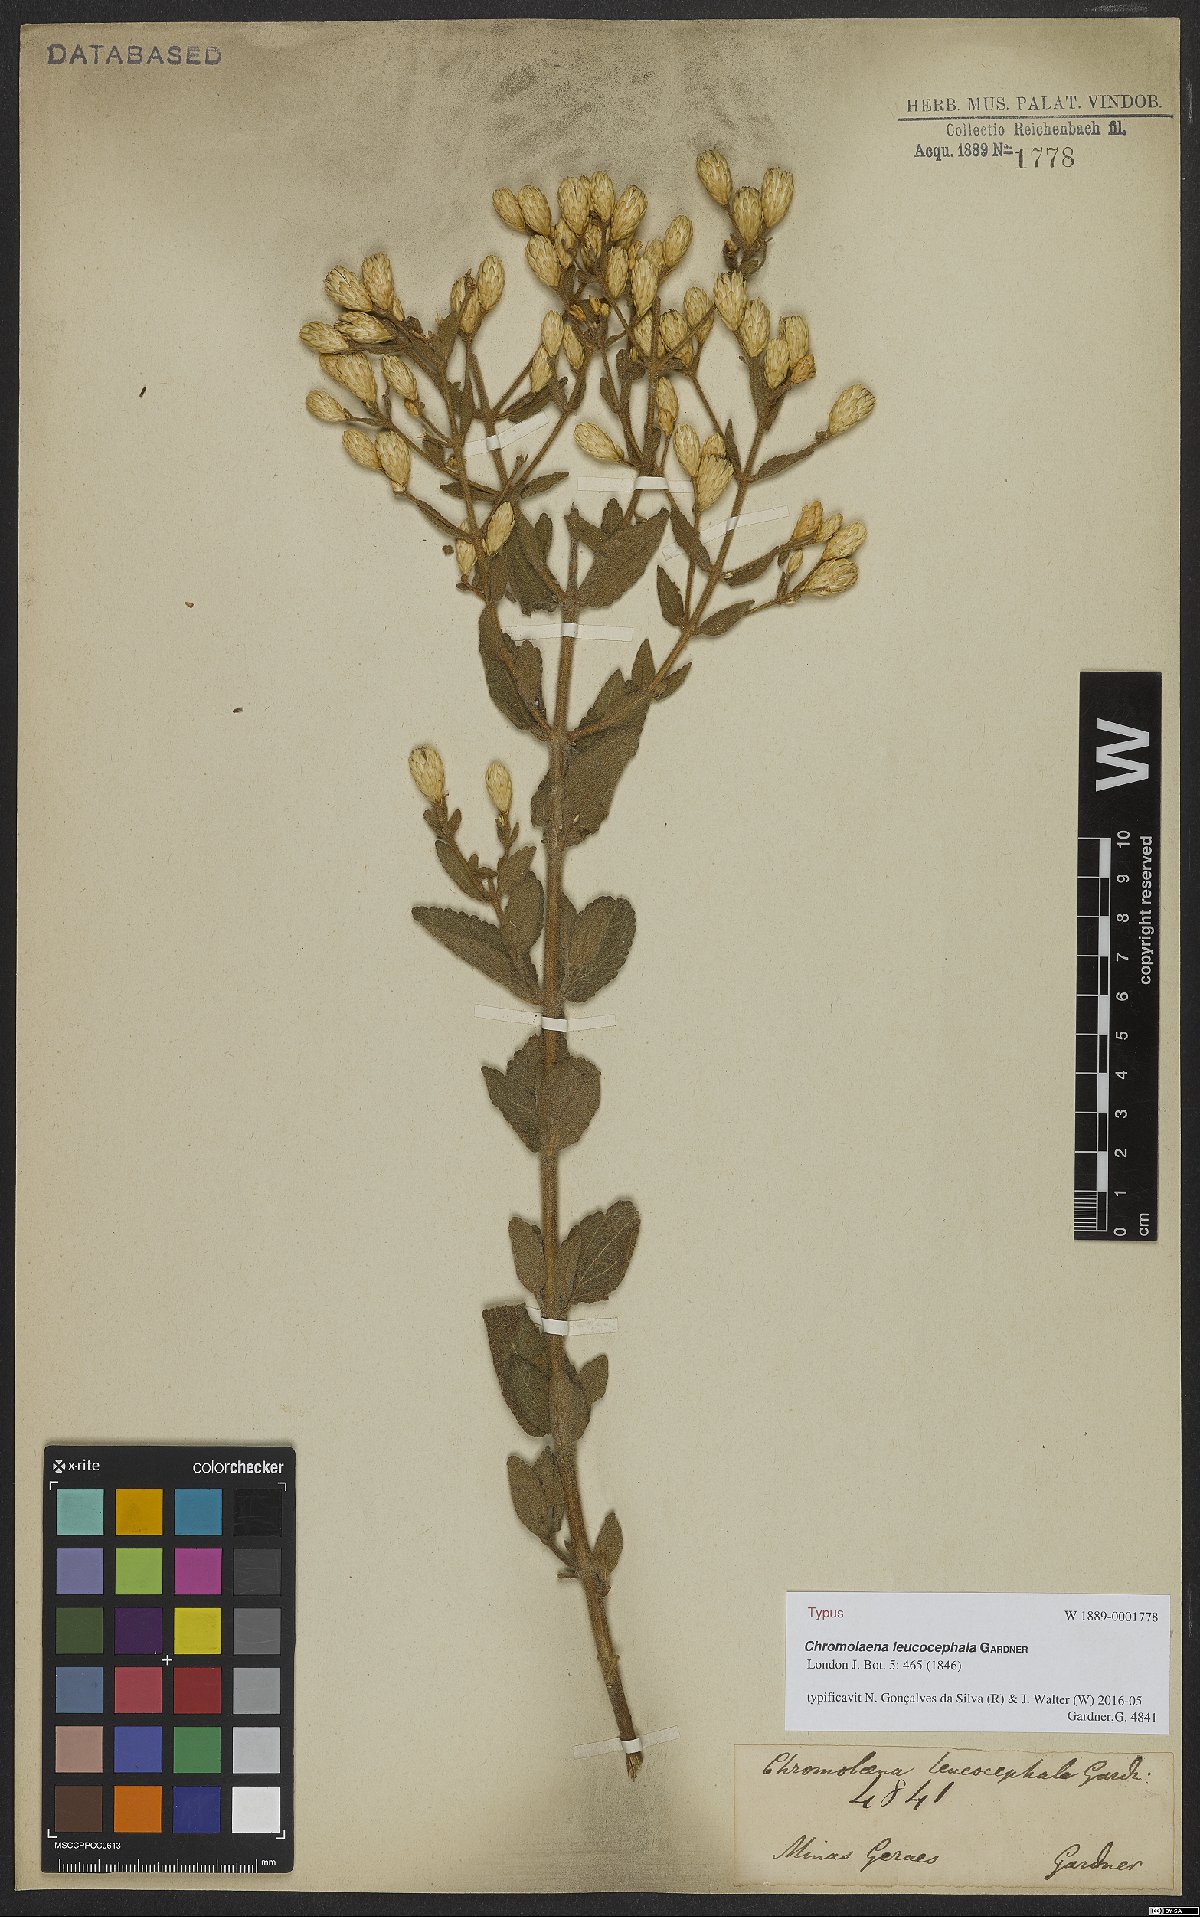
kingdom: Plantae
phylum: Tracheophyta
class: Magnoliopsida
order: Asterales
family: Asteraceae
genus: Chromolaena
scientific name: Chromolaena leucocephala
